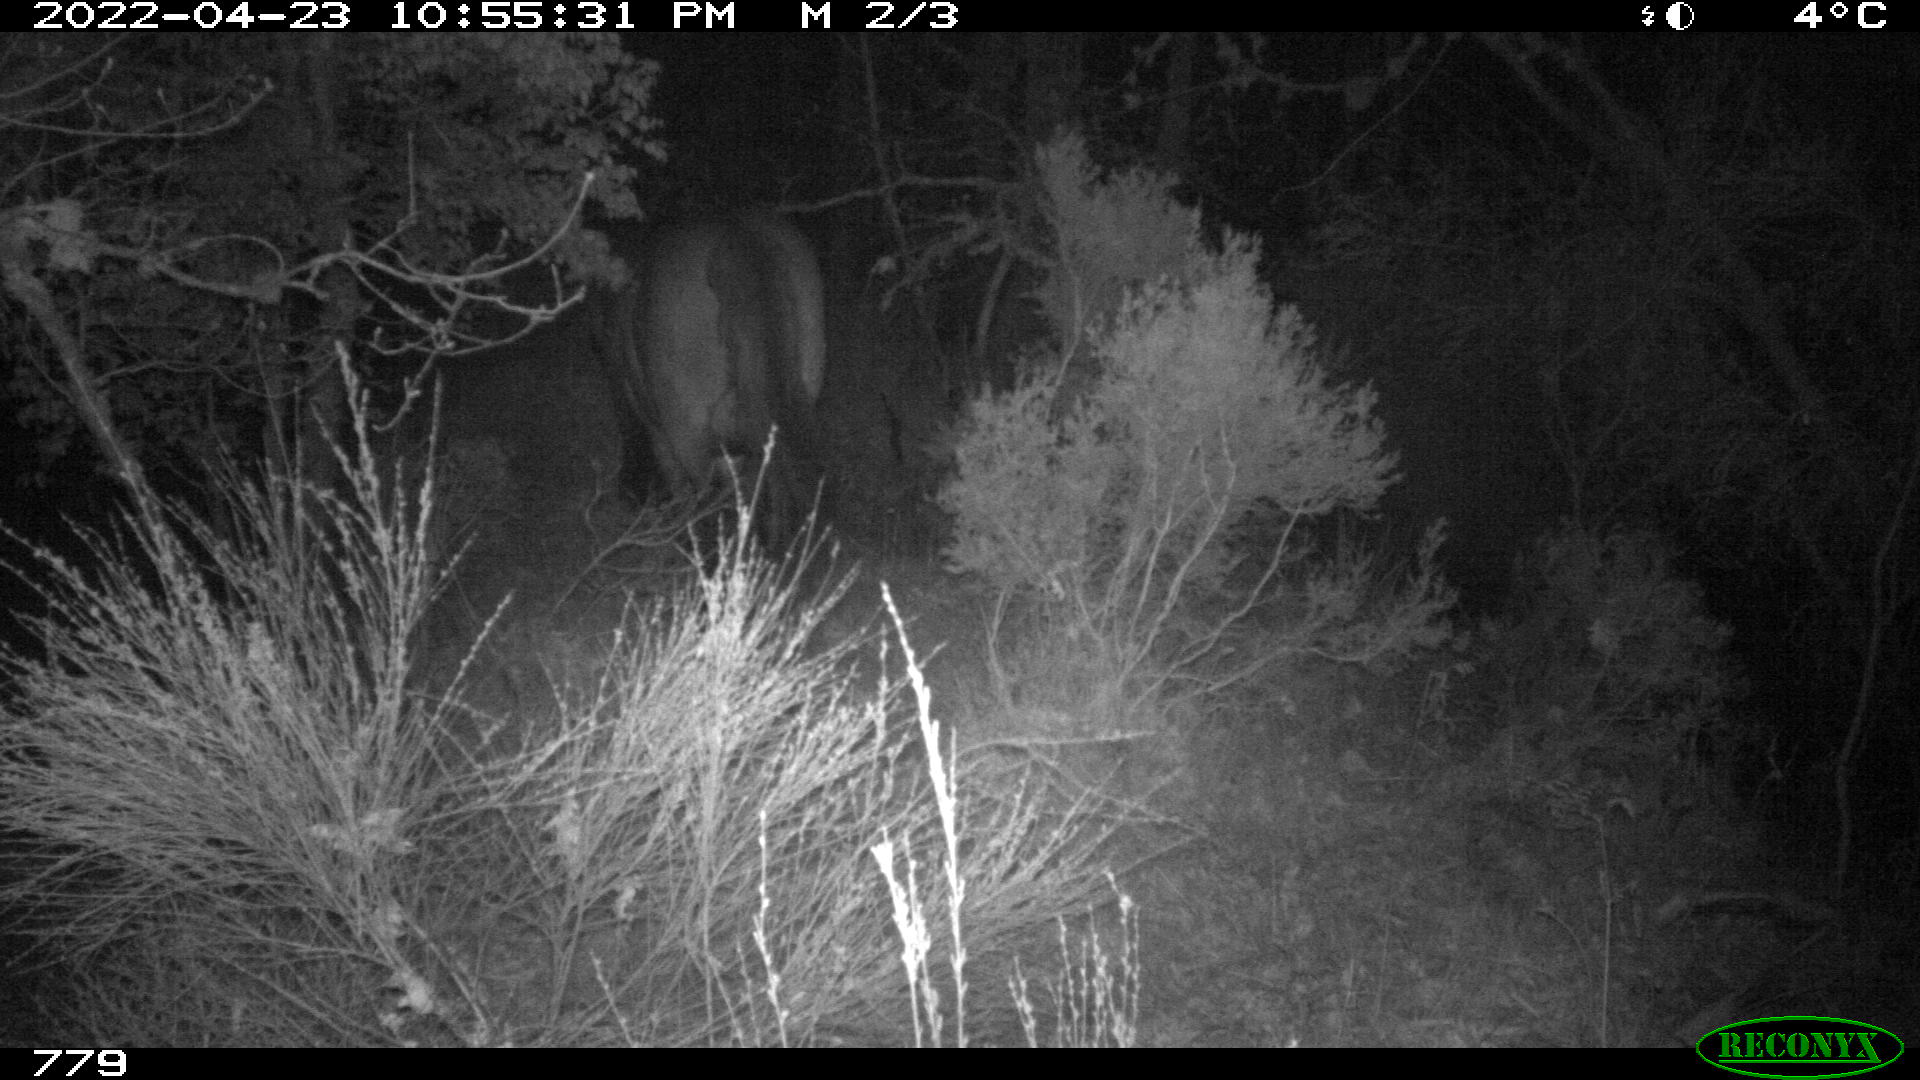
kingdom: Animalia
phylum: Chordata
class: Mammalia
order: Perissodactyla
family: Equidae
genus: Equus
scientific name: Equus caballus
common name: Horse
